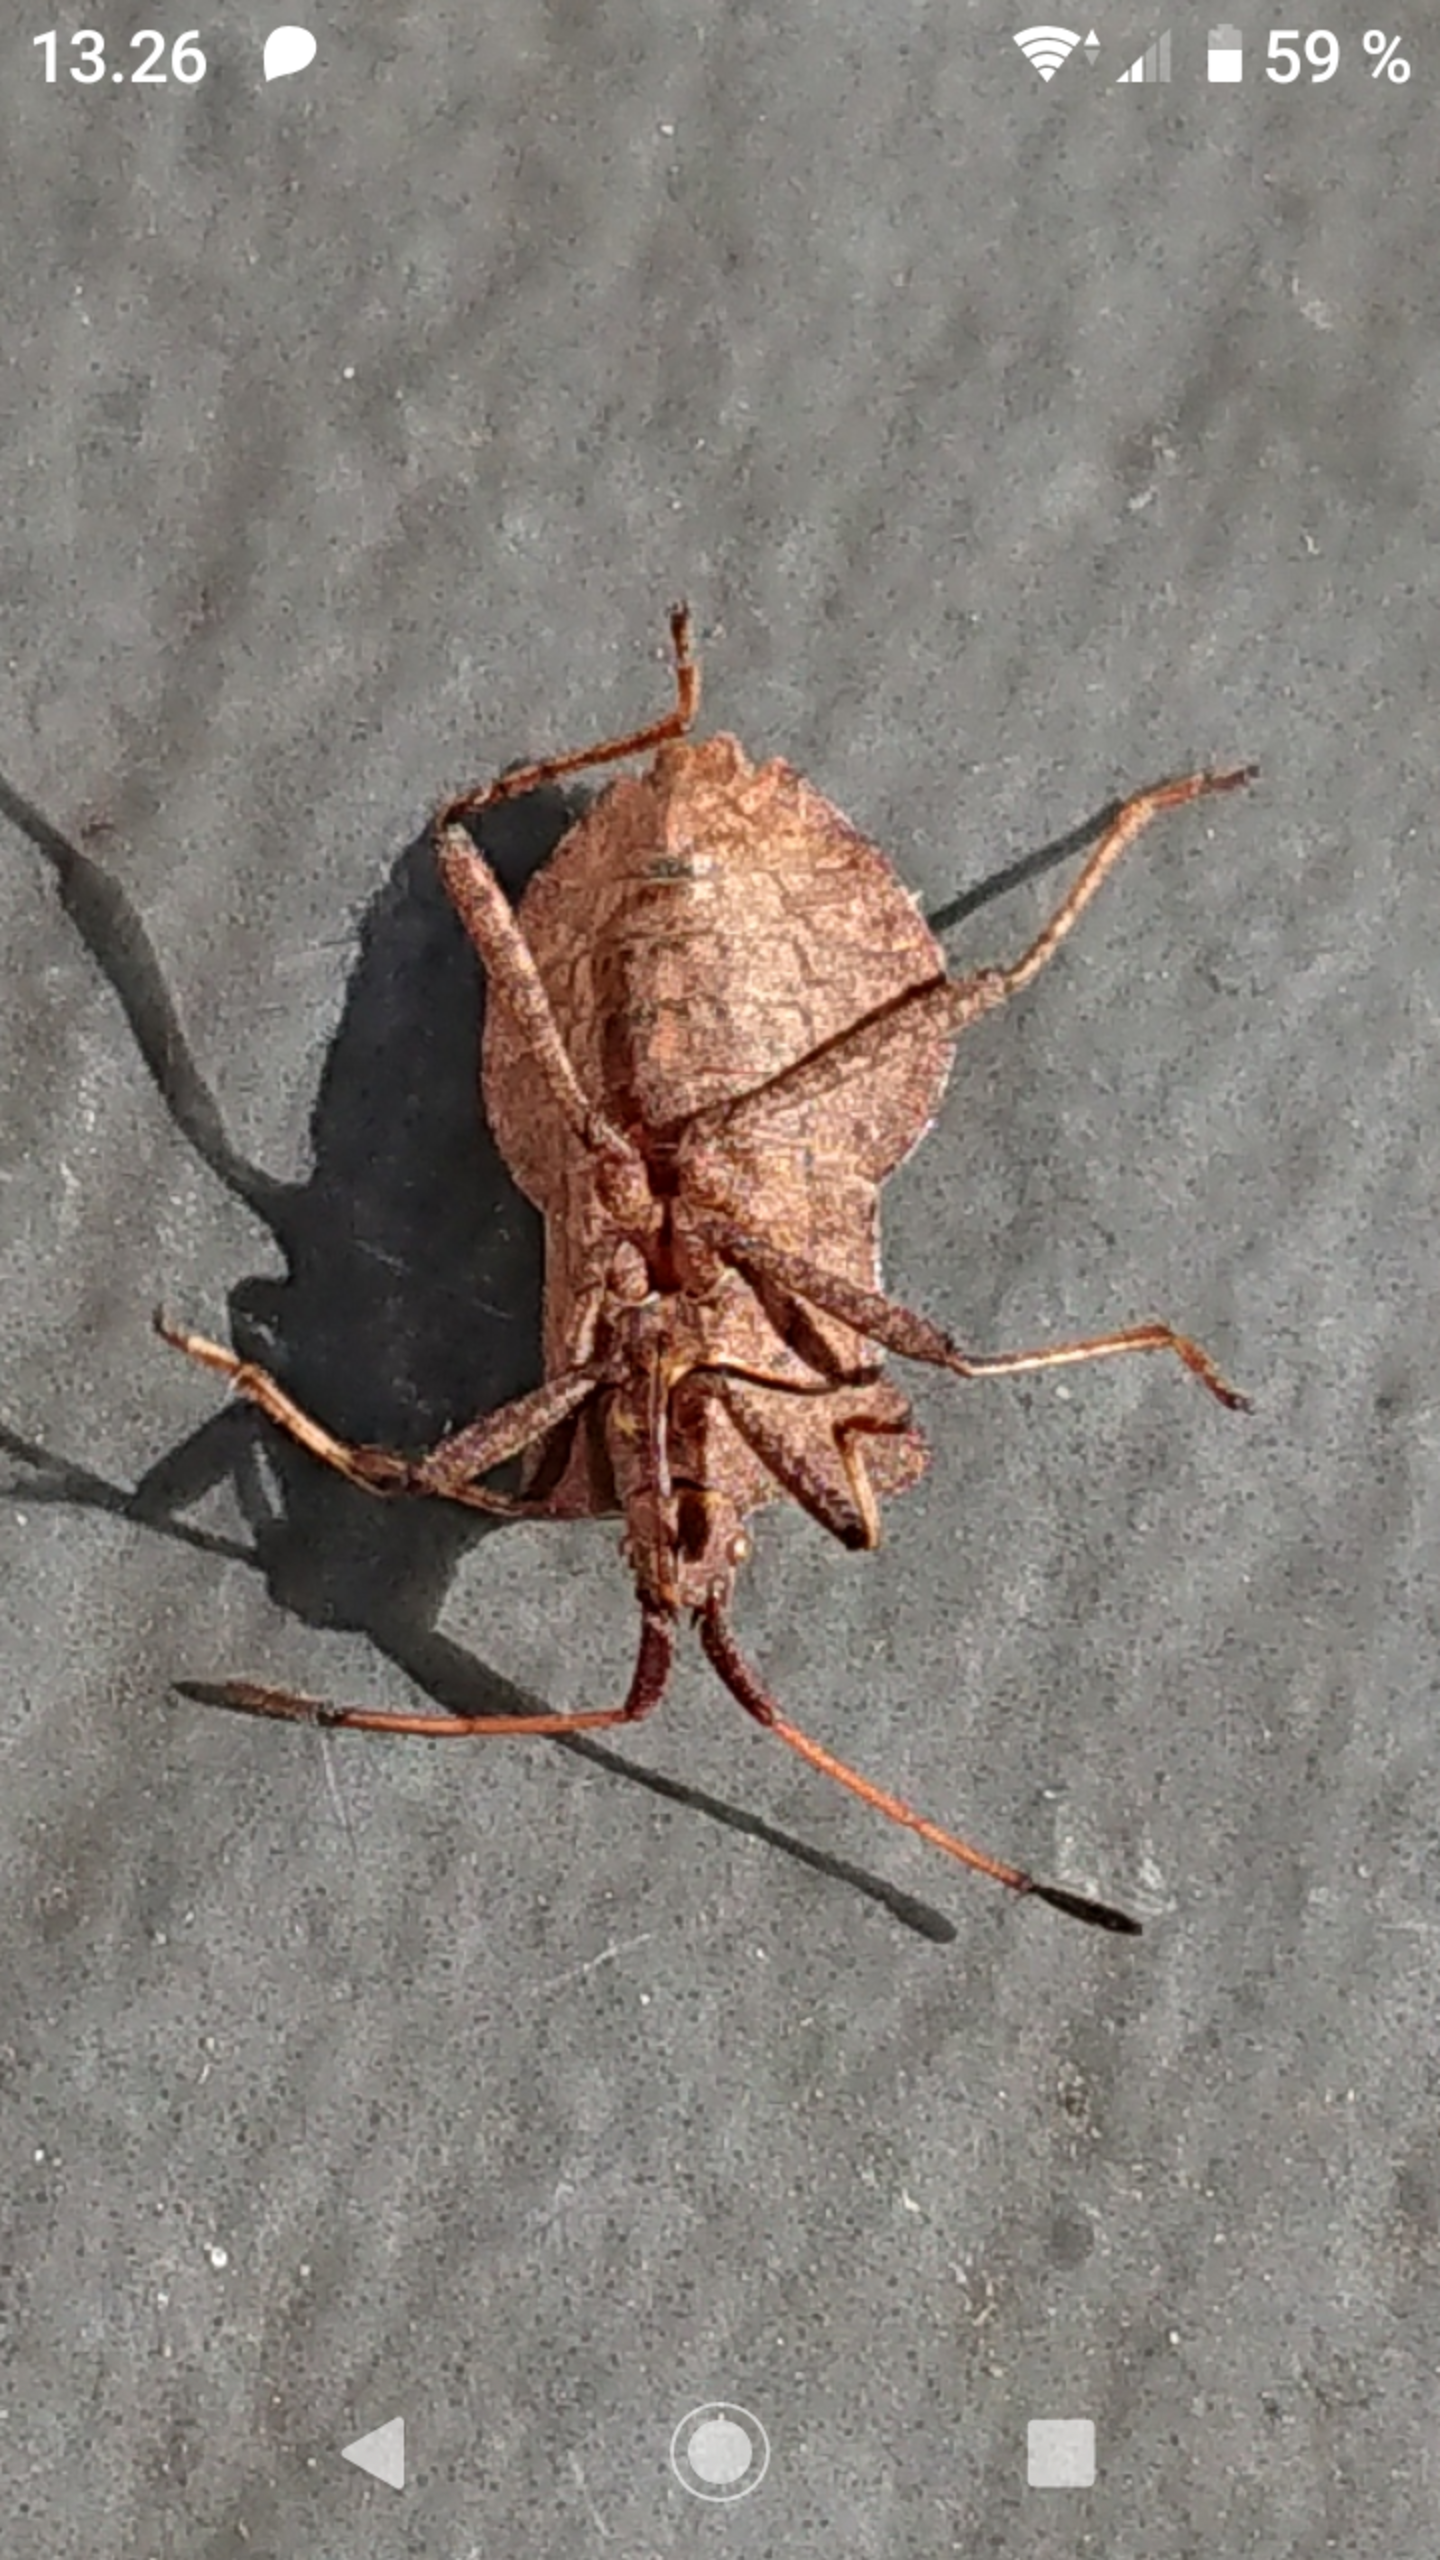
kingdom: Animalia
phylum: Arthropoda
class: Insecta
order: Hemiptera
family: Coreidae
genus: Coreus
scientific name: Coreus marginatus
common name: Skræppetæge
